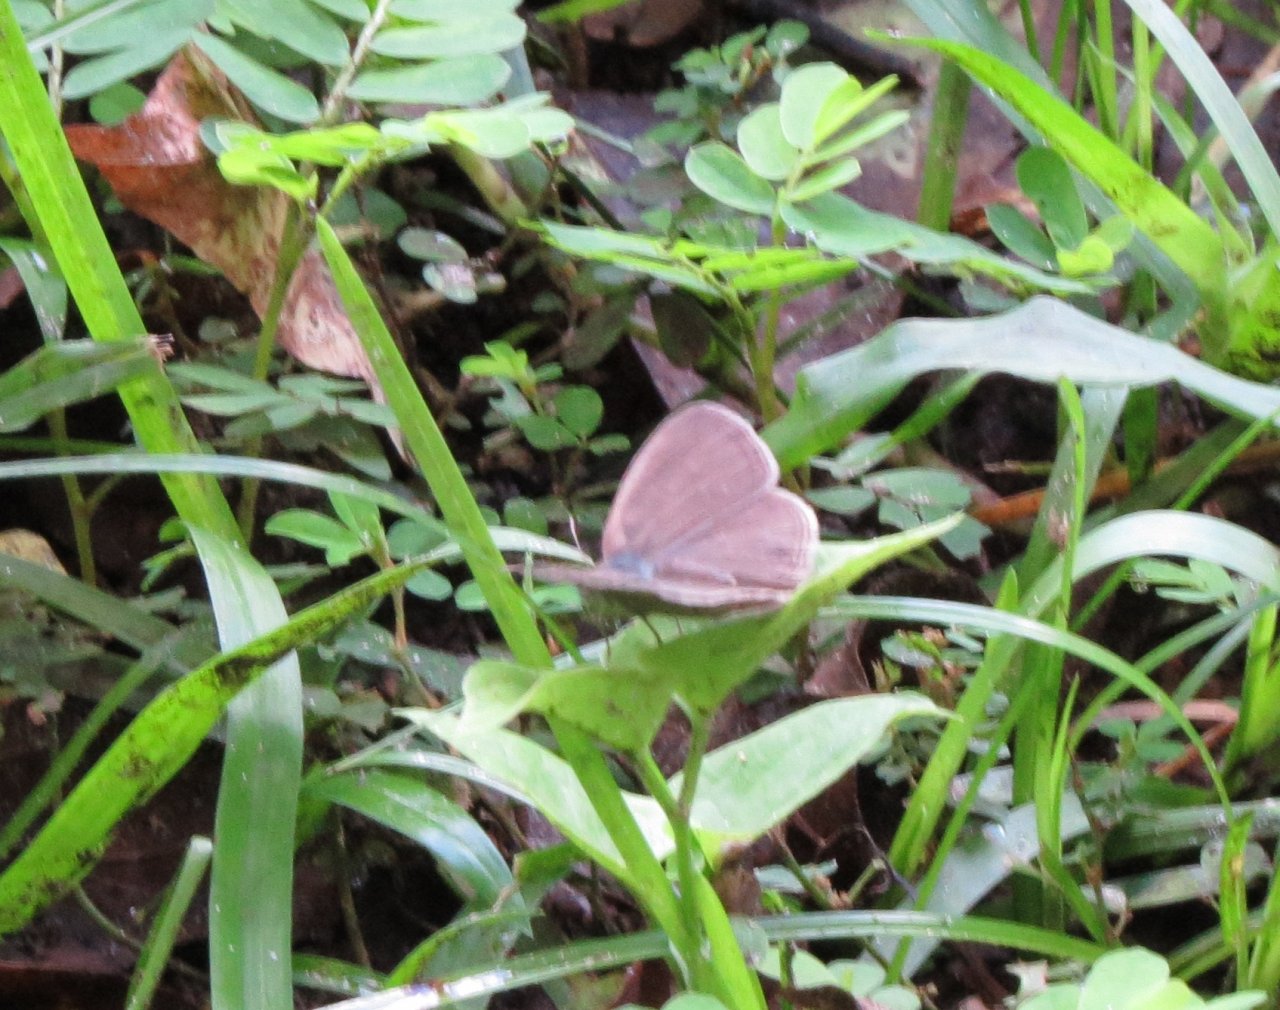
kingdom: Animalia
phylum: Arthropoda
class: Insecta
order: Lepidoptera
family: Nymphalidae
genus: Hermeuptychia
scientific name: Hermeuptychia
